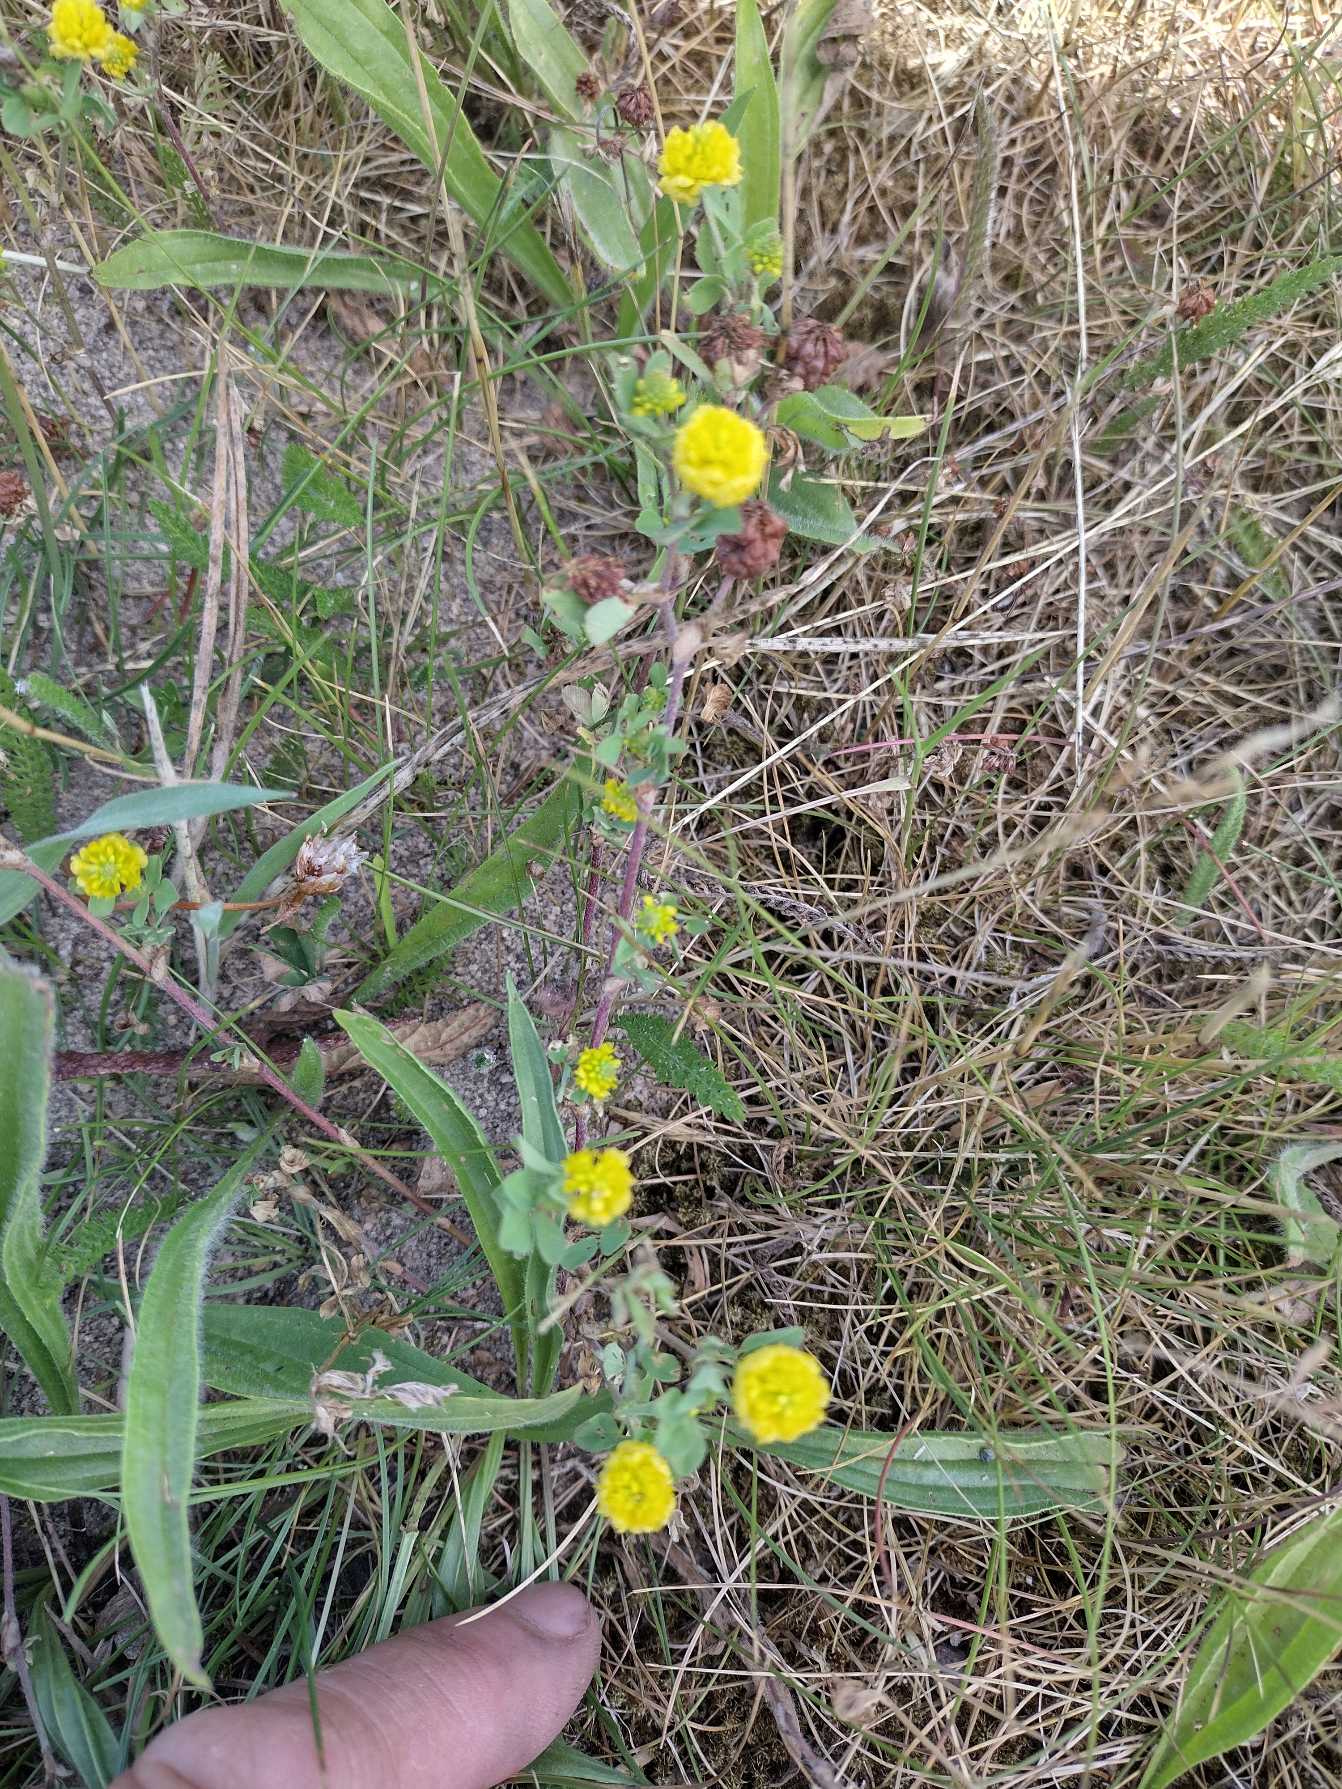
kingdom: Plantae
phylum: Tracheophyta
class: Magnoliopsida
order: Fabales
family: Fabaceae
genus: Trifolium
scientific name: Trifolium campestre
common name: Gul kløver
